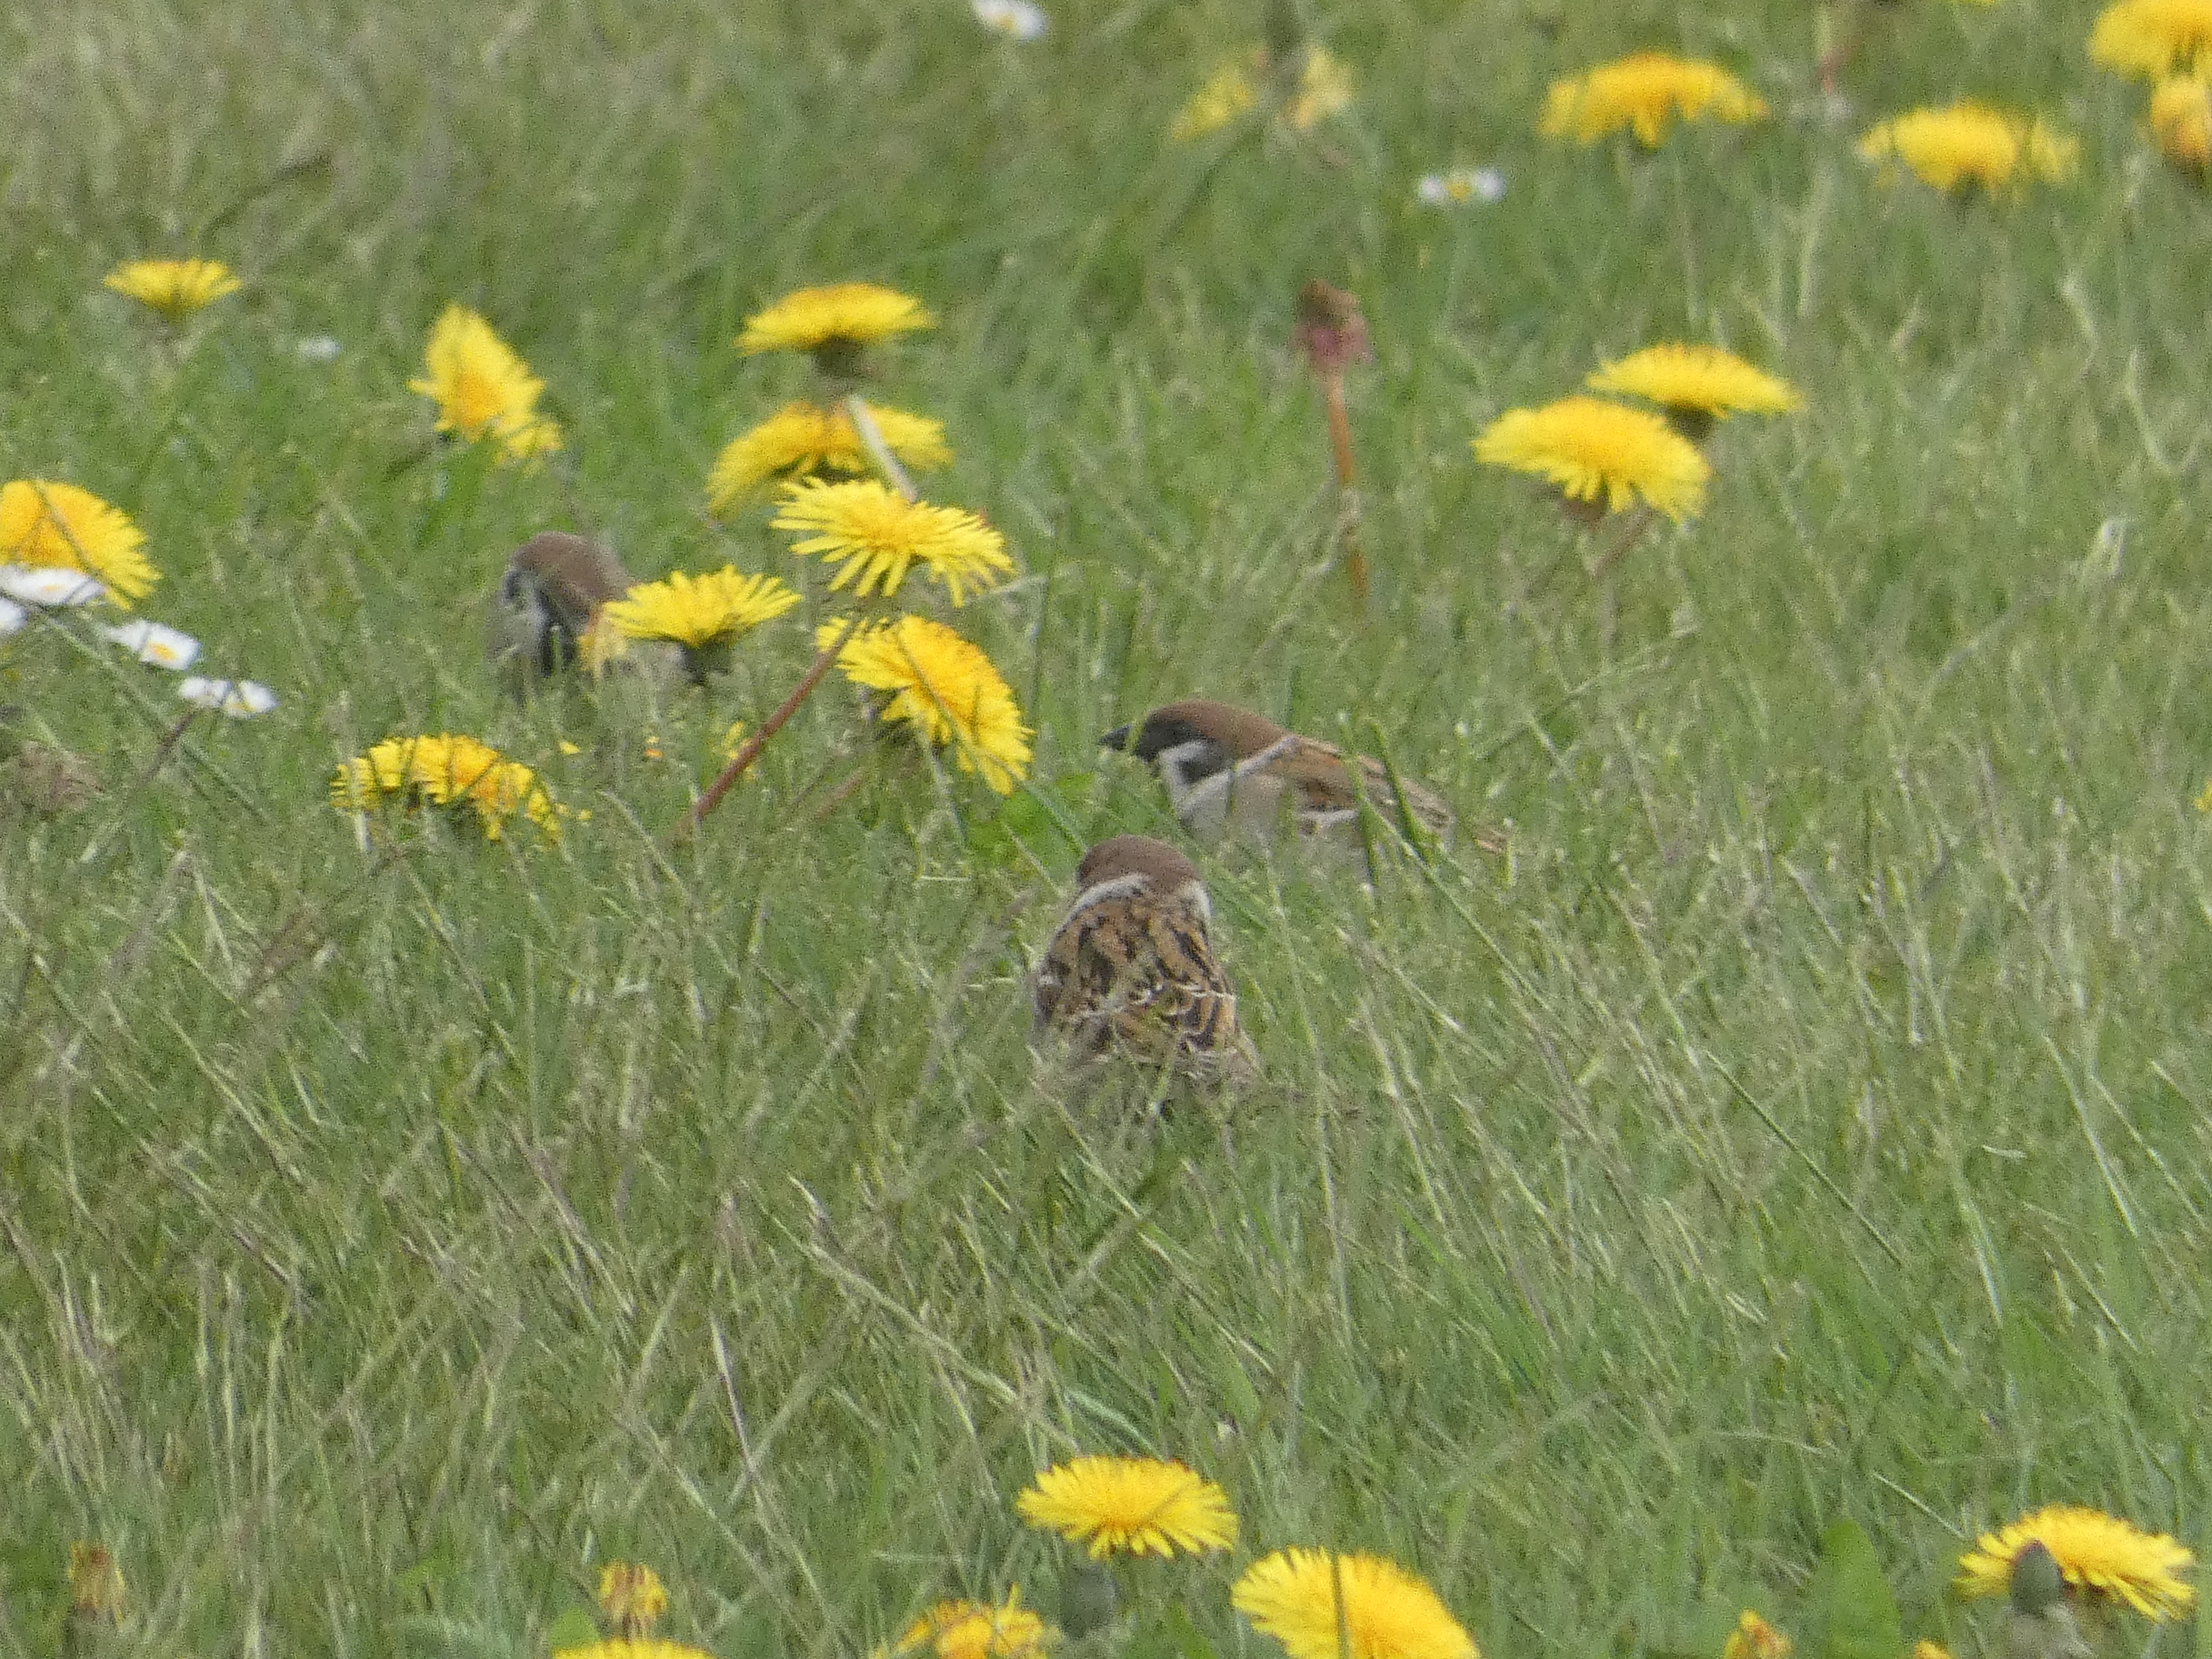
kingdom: Animalia
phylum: Chordata
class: Aves
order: Passeriformes
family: Passeridae
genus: Passer
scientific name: Passer montanus
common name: Skovspurv
